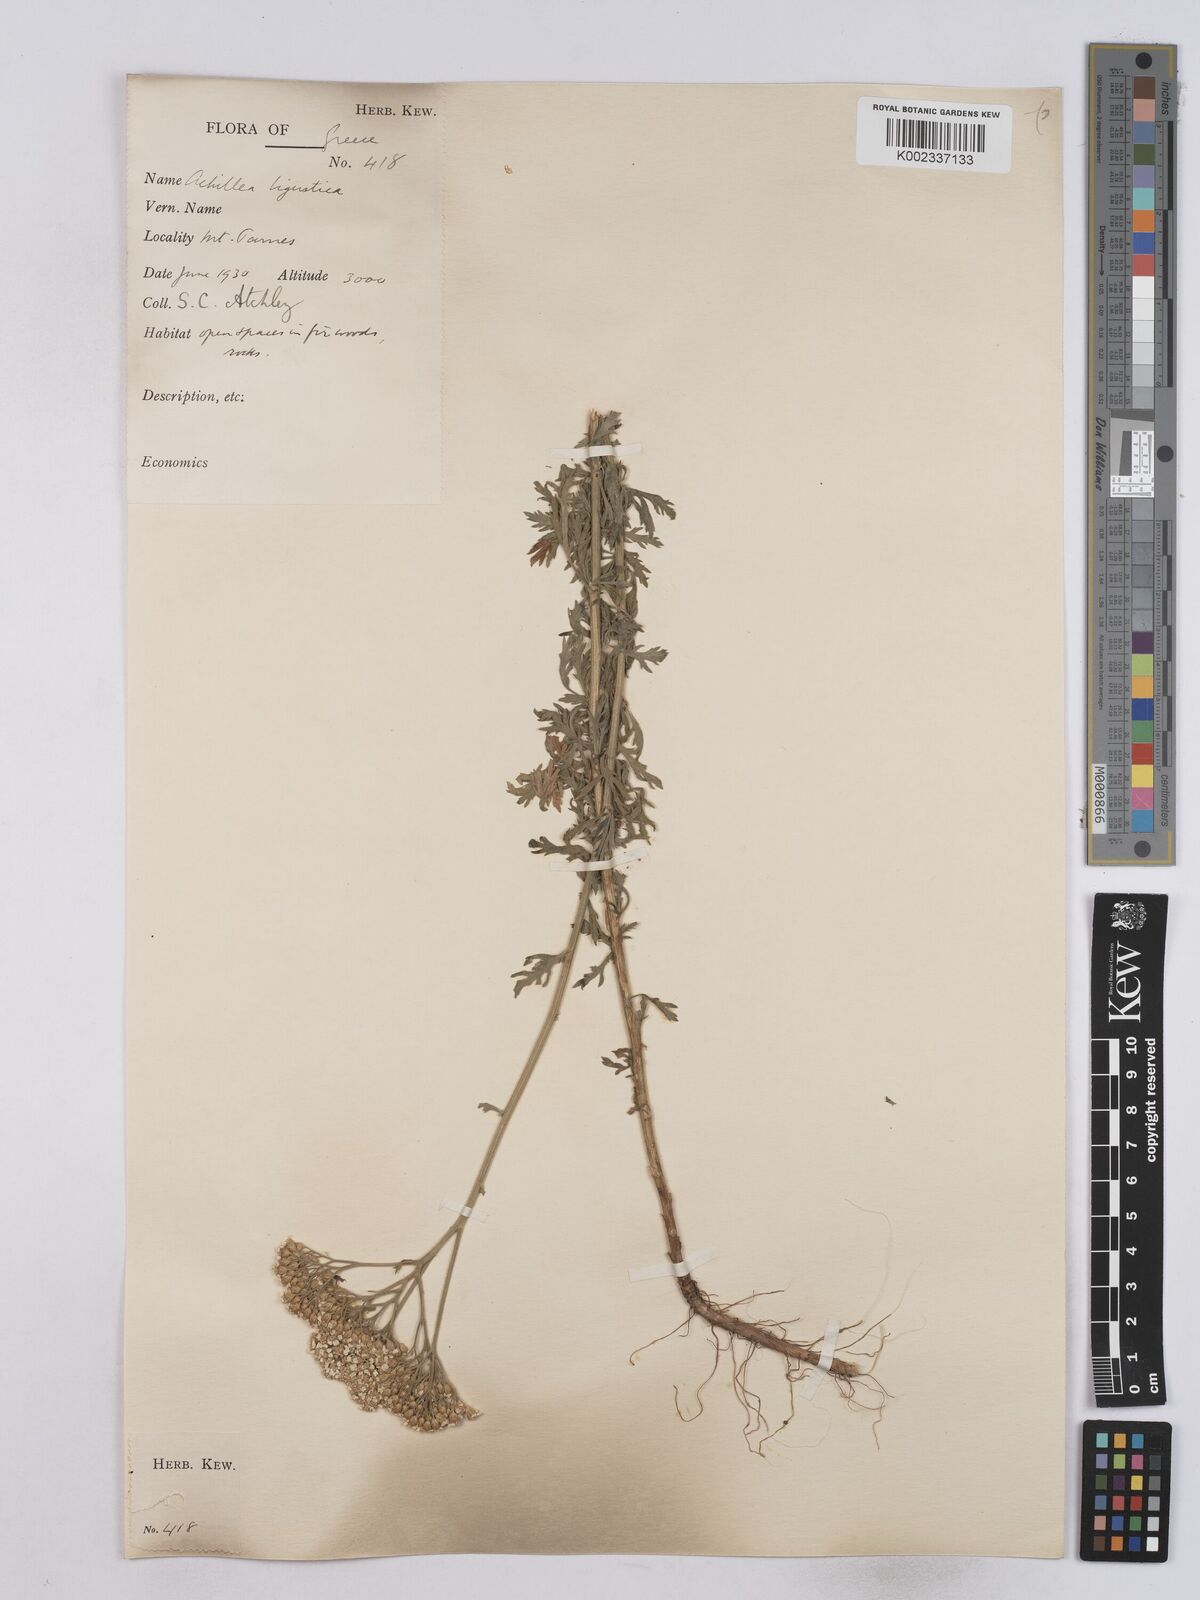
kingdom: Plantae
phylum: Tracheophyta
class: Magnoliopsida
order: Asterales
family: Asteraceae
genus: Achillea
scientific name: Achillea ligustica
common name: Southern yarrow
